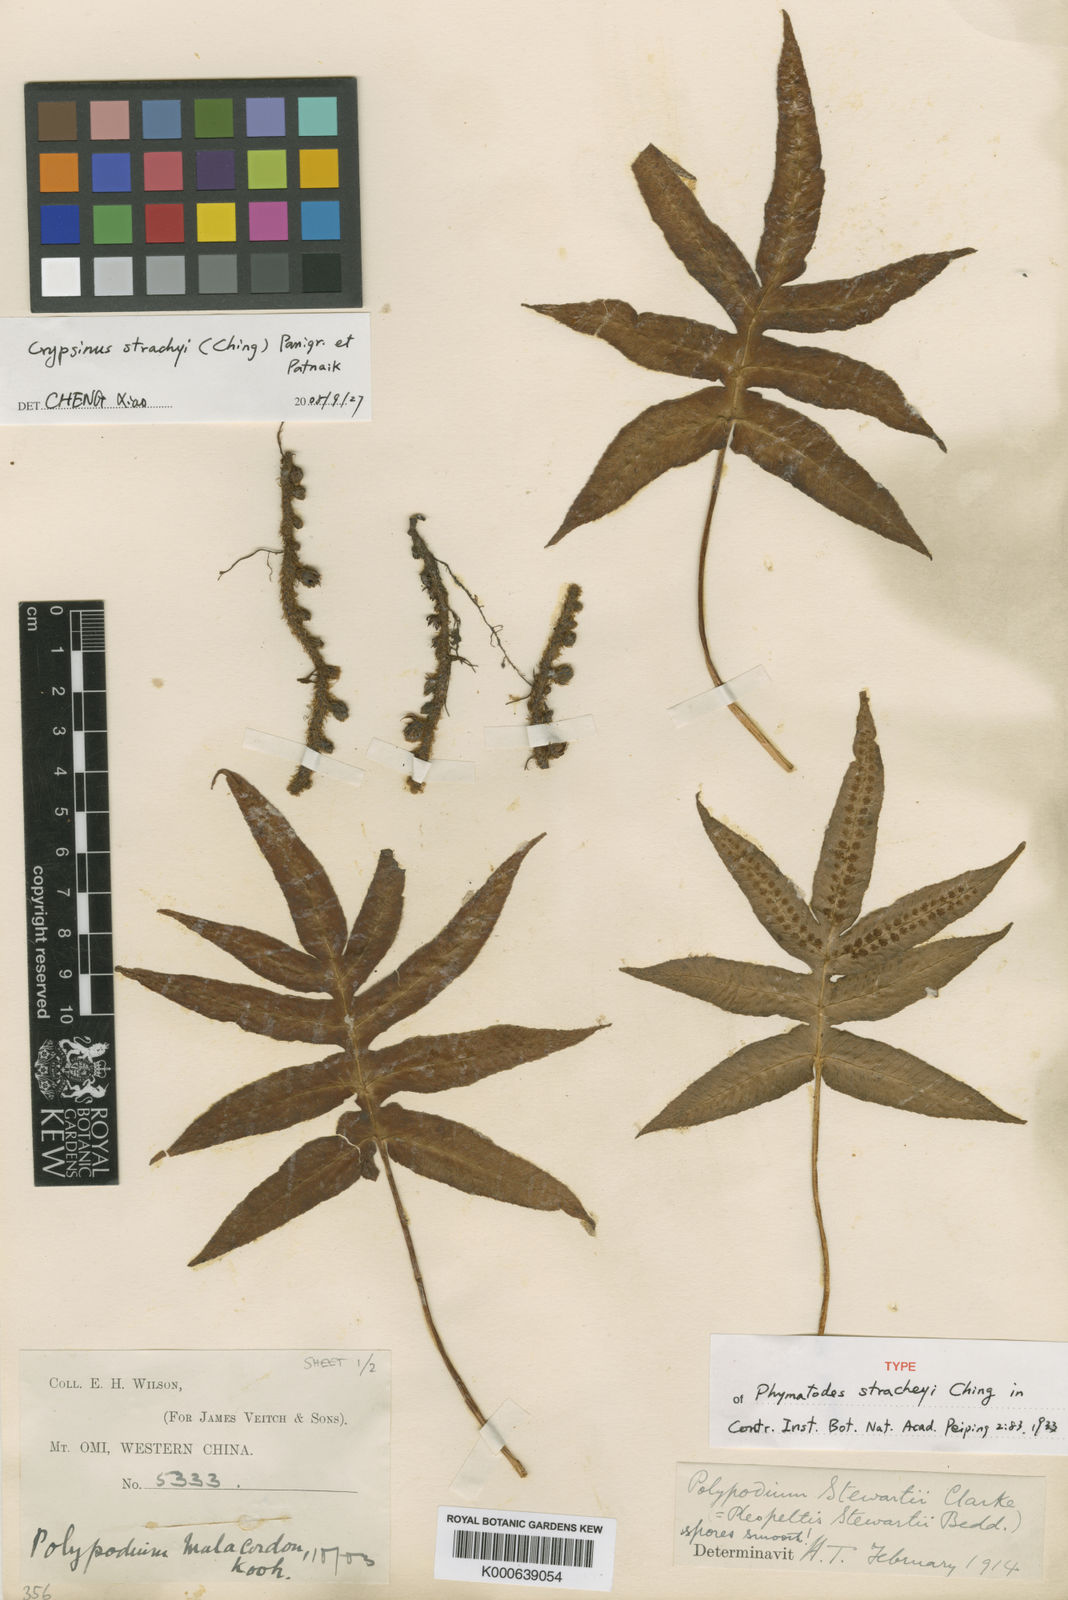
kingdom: Plantae
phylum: Tracheophyta
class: Polypodiopsida
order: Polypodiales
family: Polypodiaceae
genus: Selliguea
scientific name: Selliguea quasidivaricata
